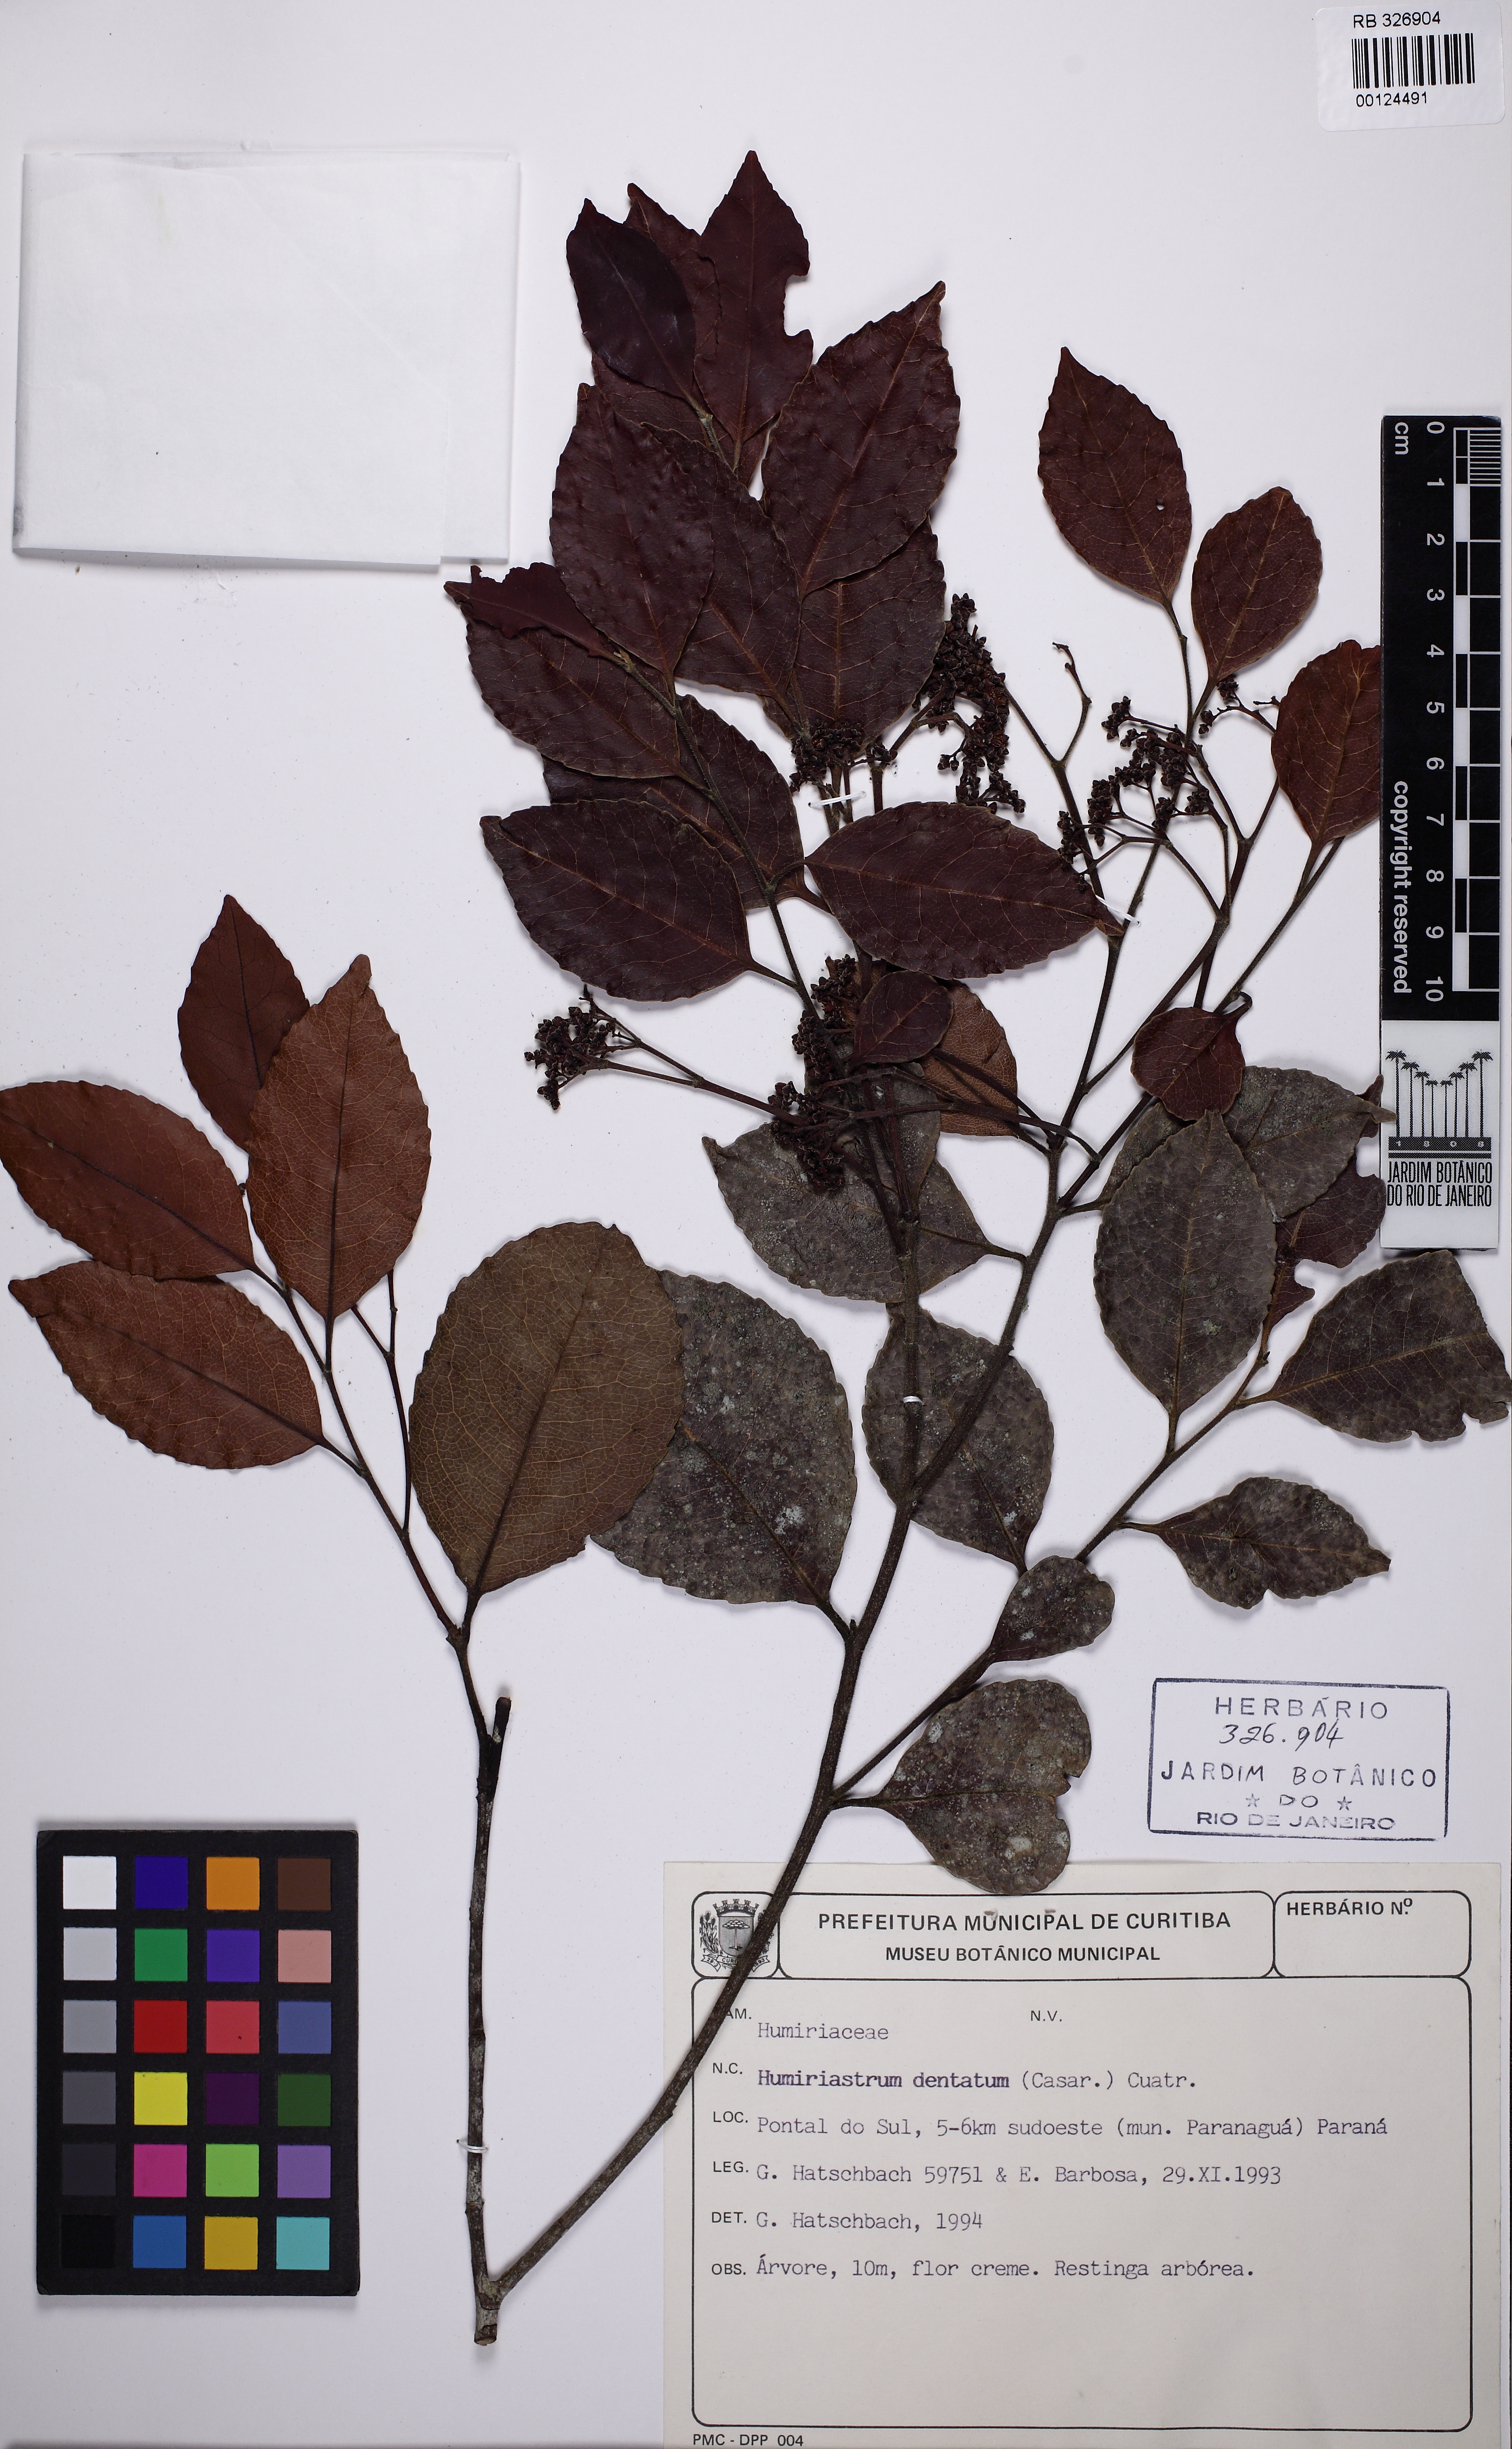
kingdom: Plantae
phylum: Tracheophyta
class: Magnoliopsida
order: Malpighiales
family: Humiriaceae
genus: Humiriastrum
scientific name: Humiriastrum dentatum
